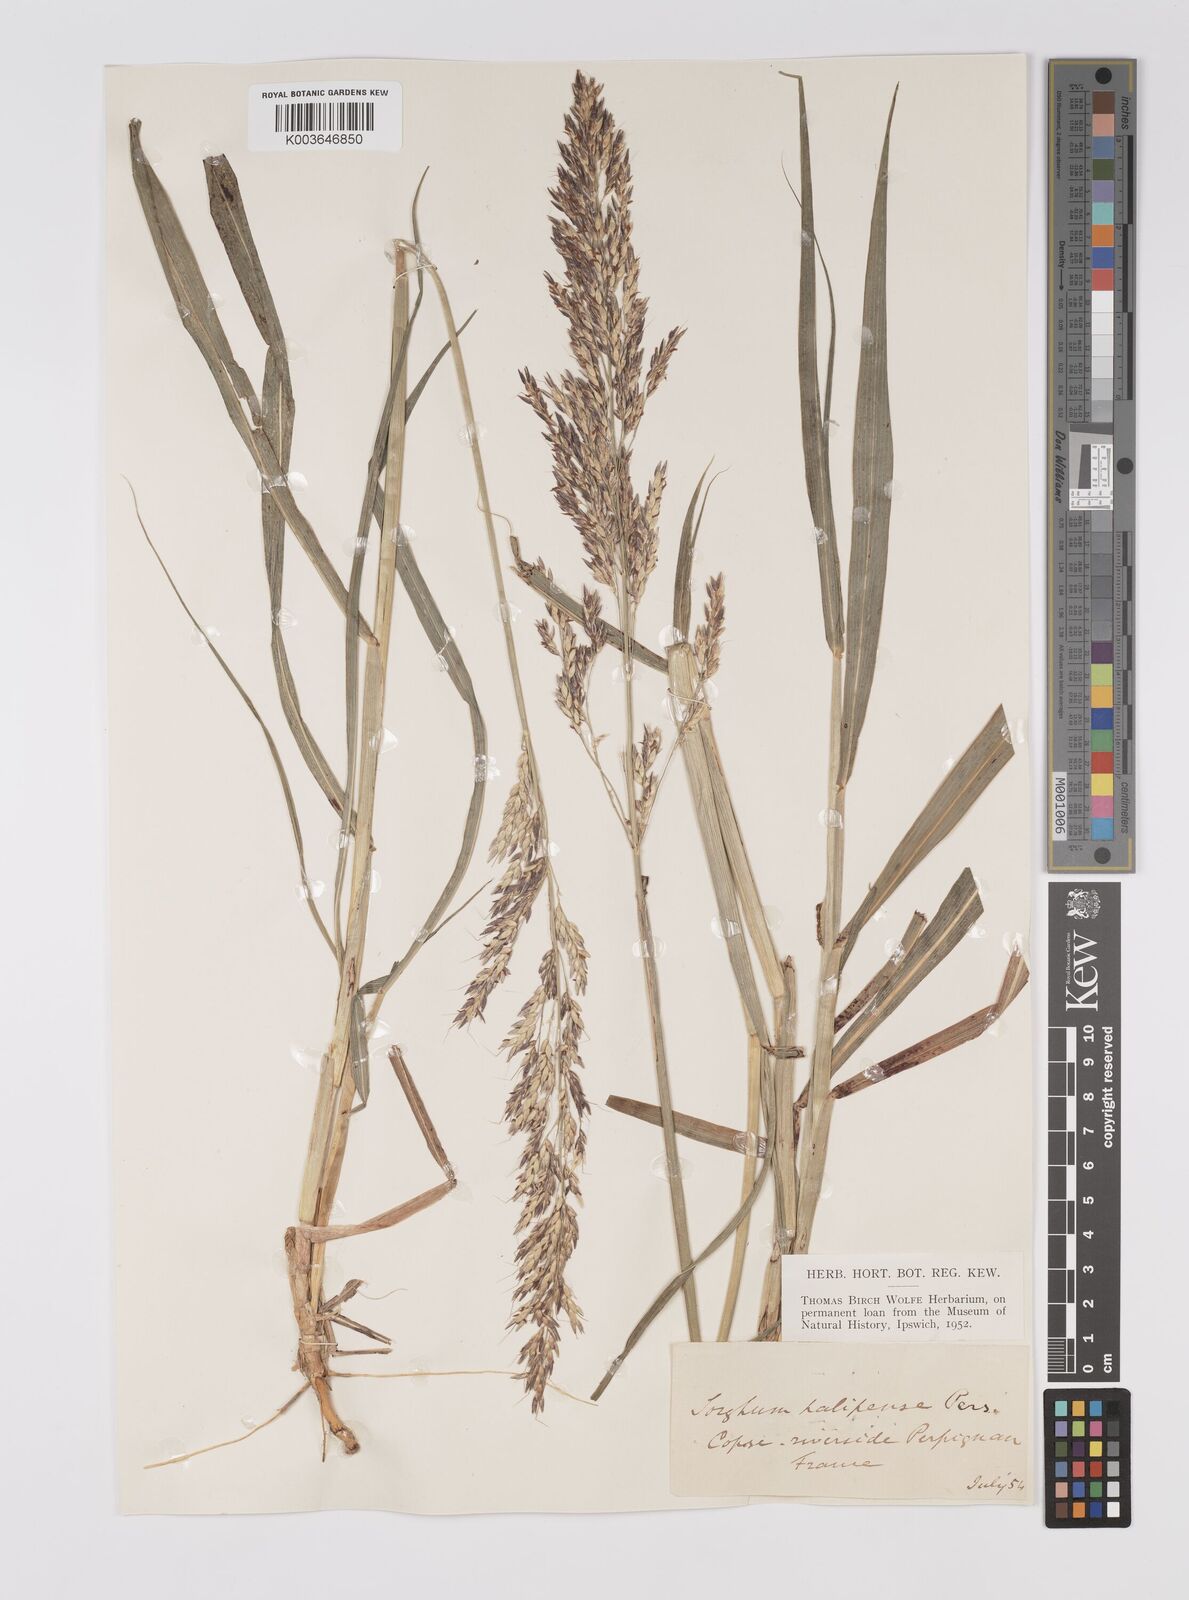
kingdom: Plantae
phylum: Tracheophyta
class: Liliopsida
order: Poales
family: Poaceae
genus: Sorghum
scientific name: Sorghum halepense
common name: Johnson-grass
